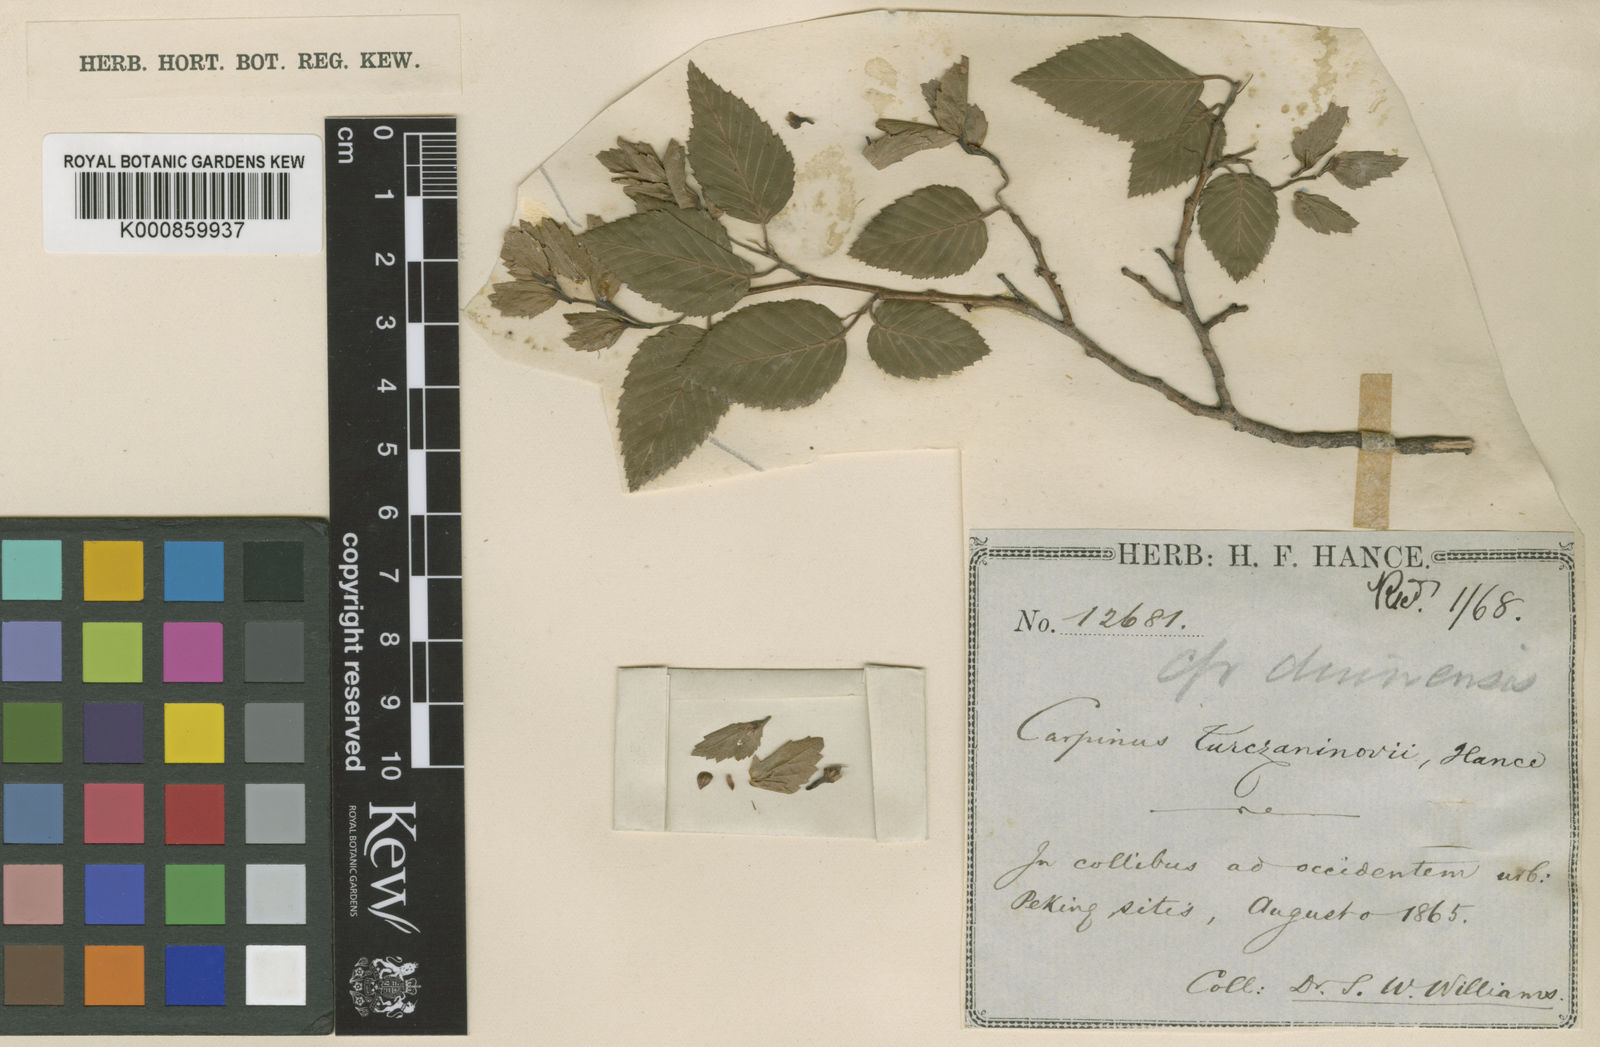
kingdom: Plantae
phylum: Tracheophyta
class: Magnoliopsida
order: Fagales
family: Betulaceae
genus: Carpinus
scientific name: Carpinus
